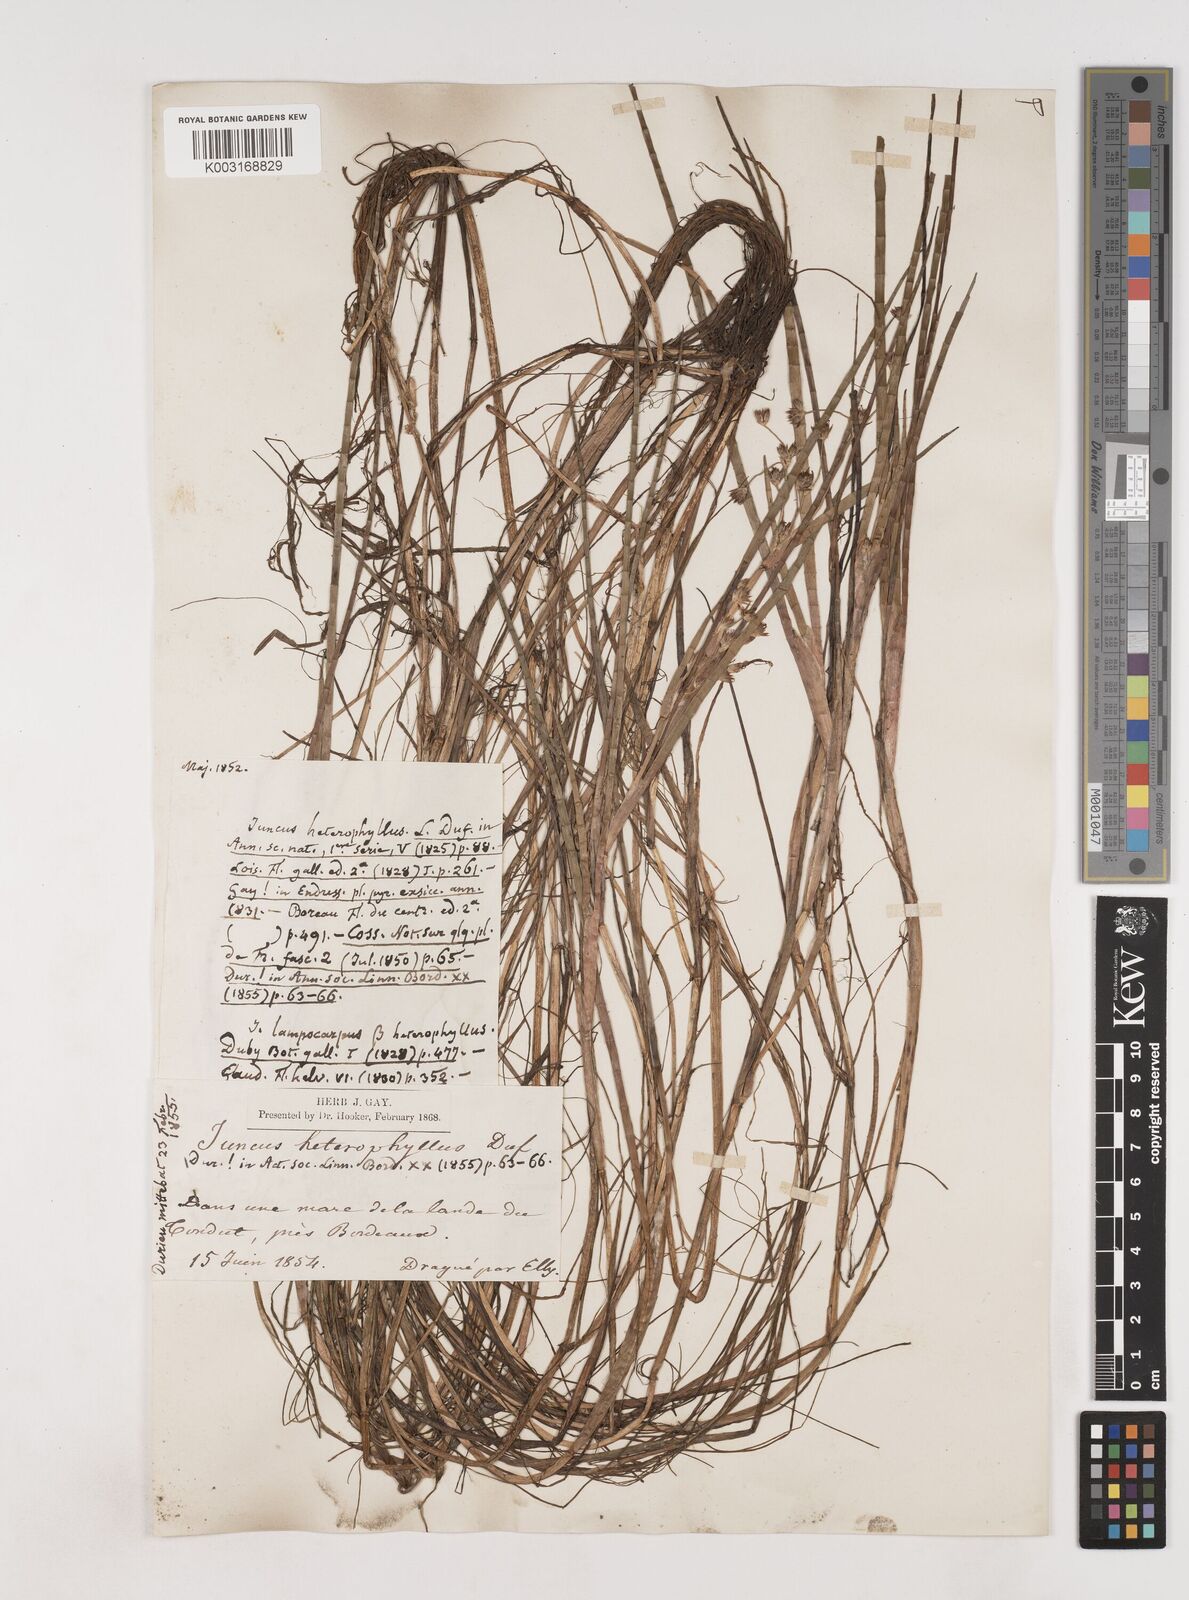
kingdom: Plantae
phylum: Tracheophyta
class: Liliopsida
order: Poales
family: Juncaceae
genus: Juncus
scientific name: Juncus heterophyllus
